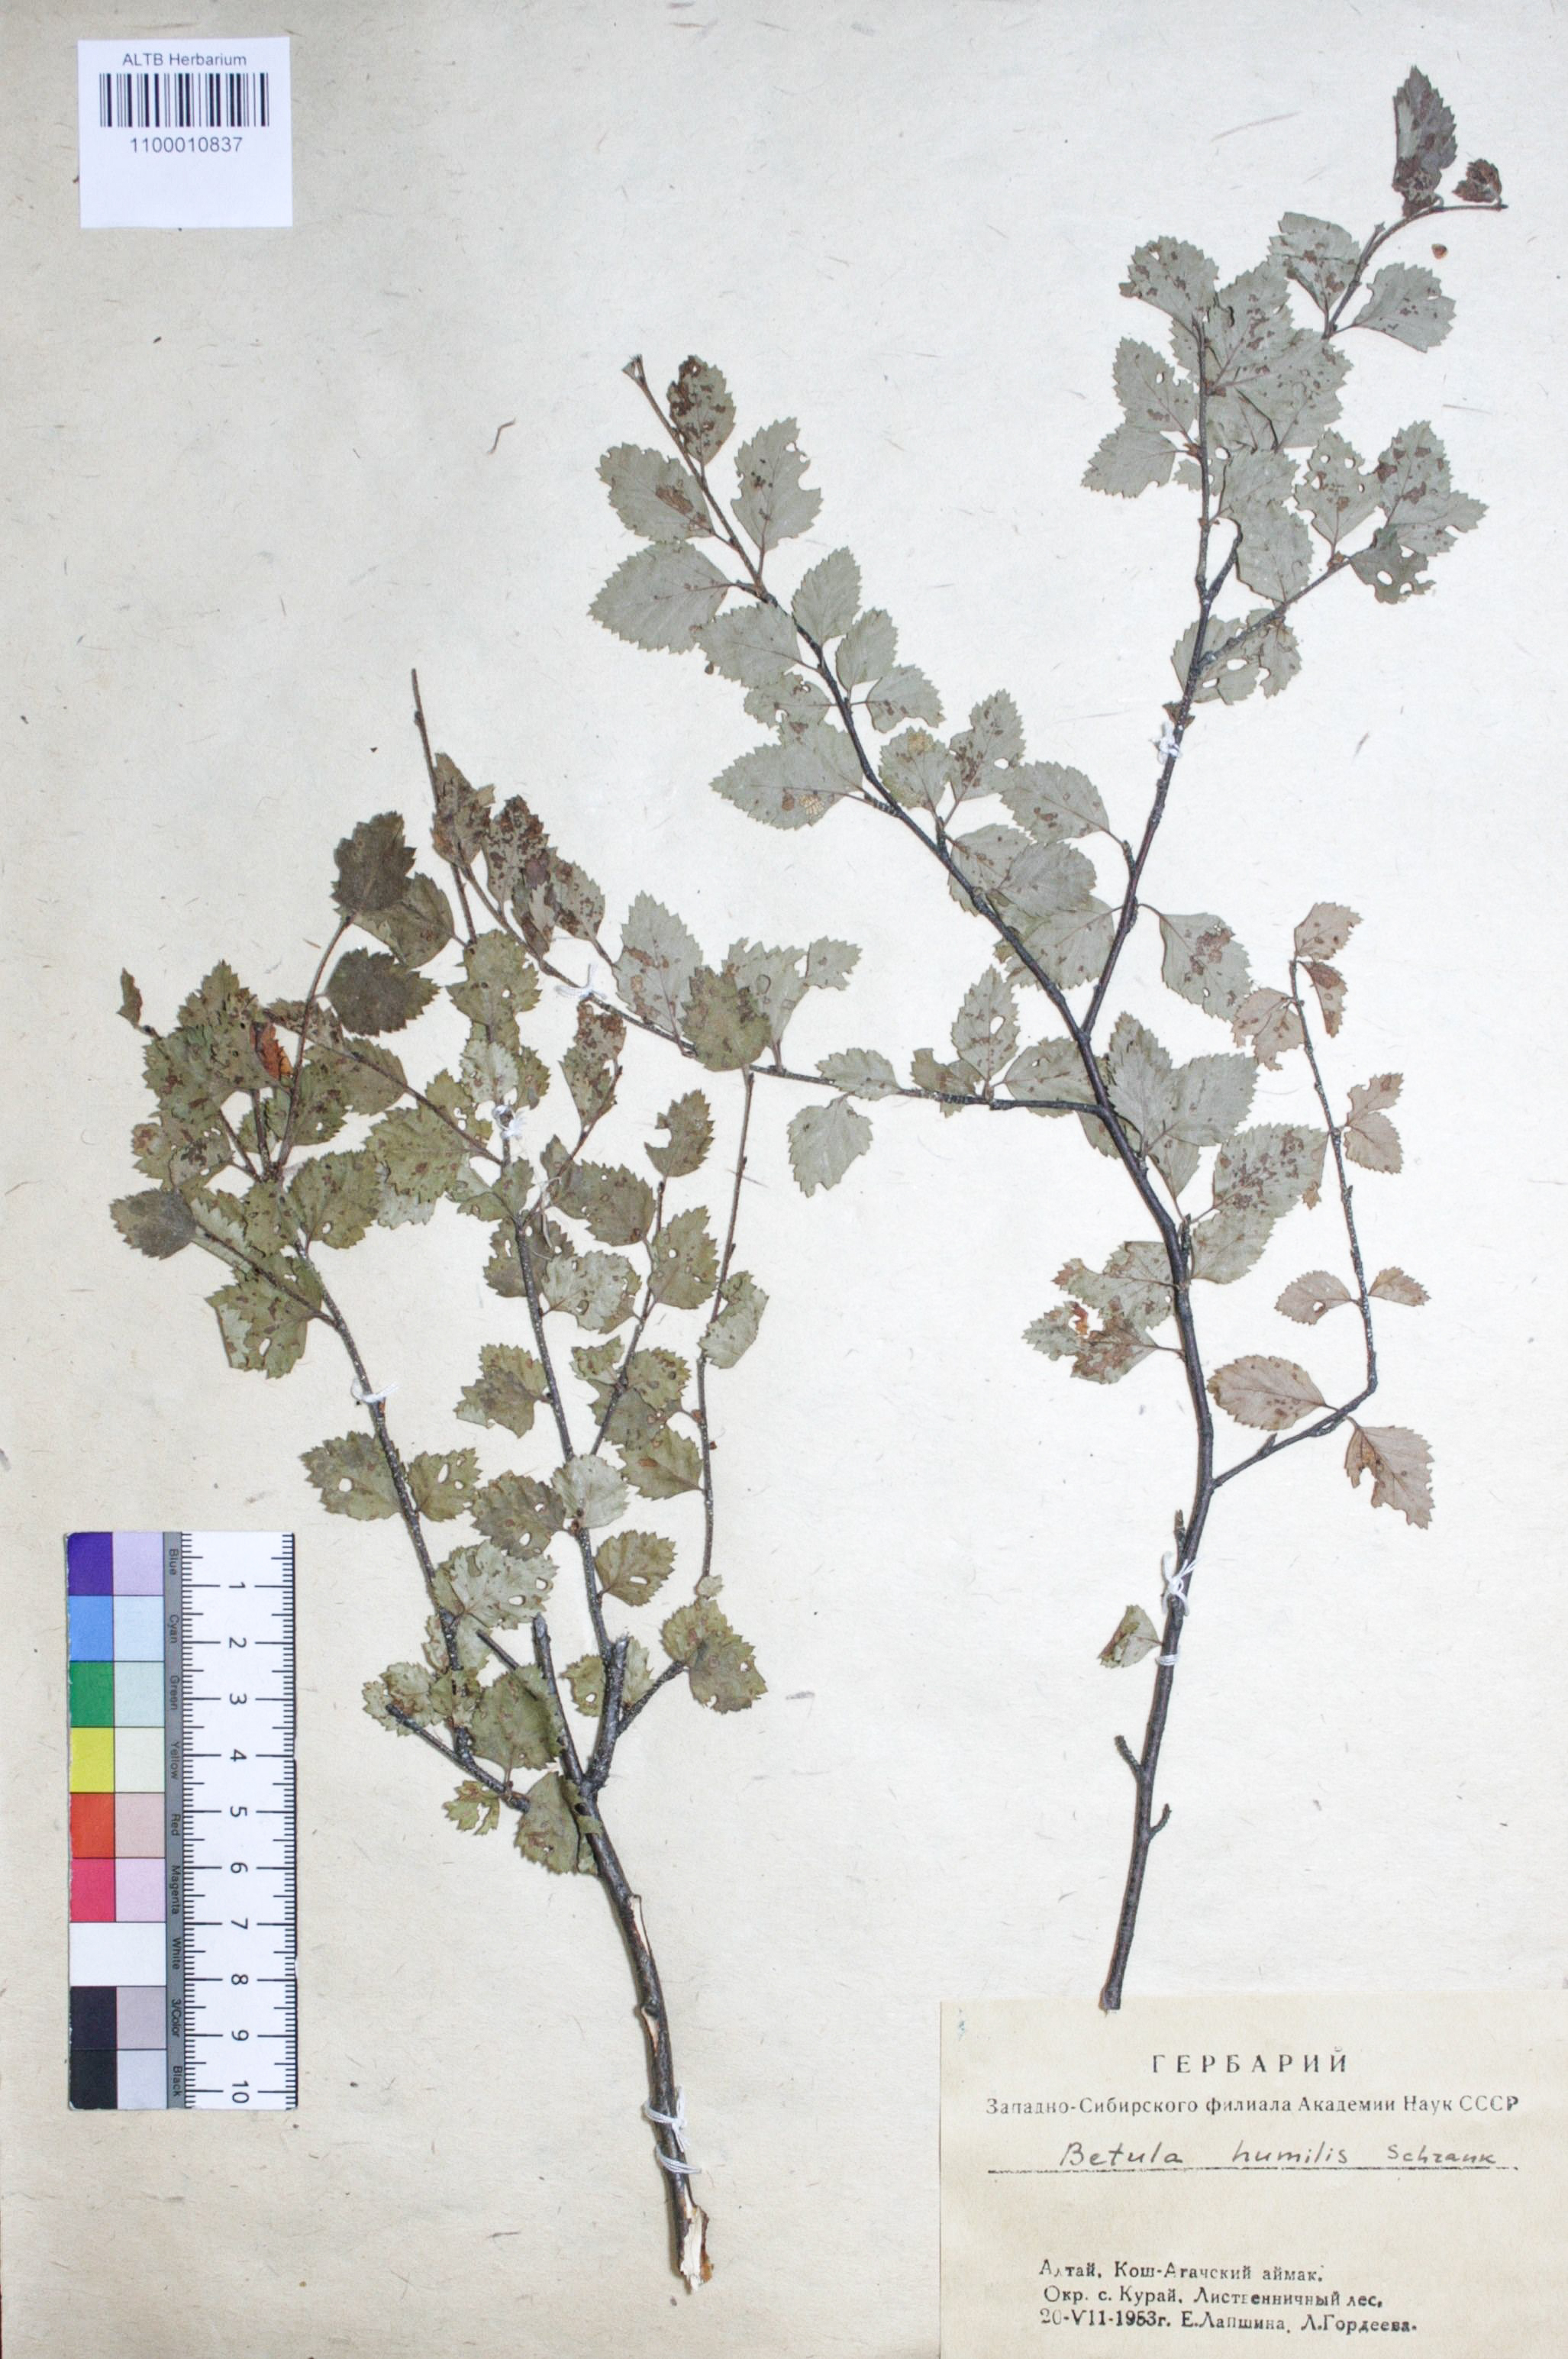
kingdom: Plantae
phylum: Tracheophyta
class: Magnoliopsida
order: Fagales
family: Betulaceae
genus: Betula
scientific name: Betula humilis
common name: Shrubby birch
